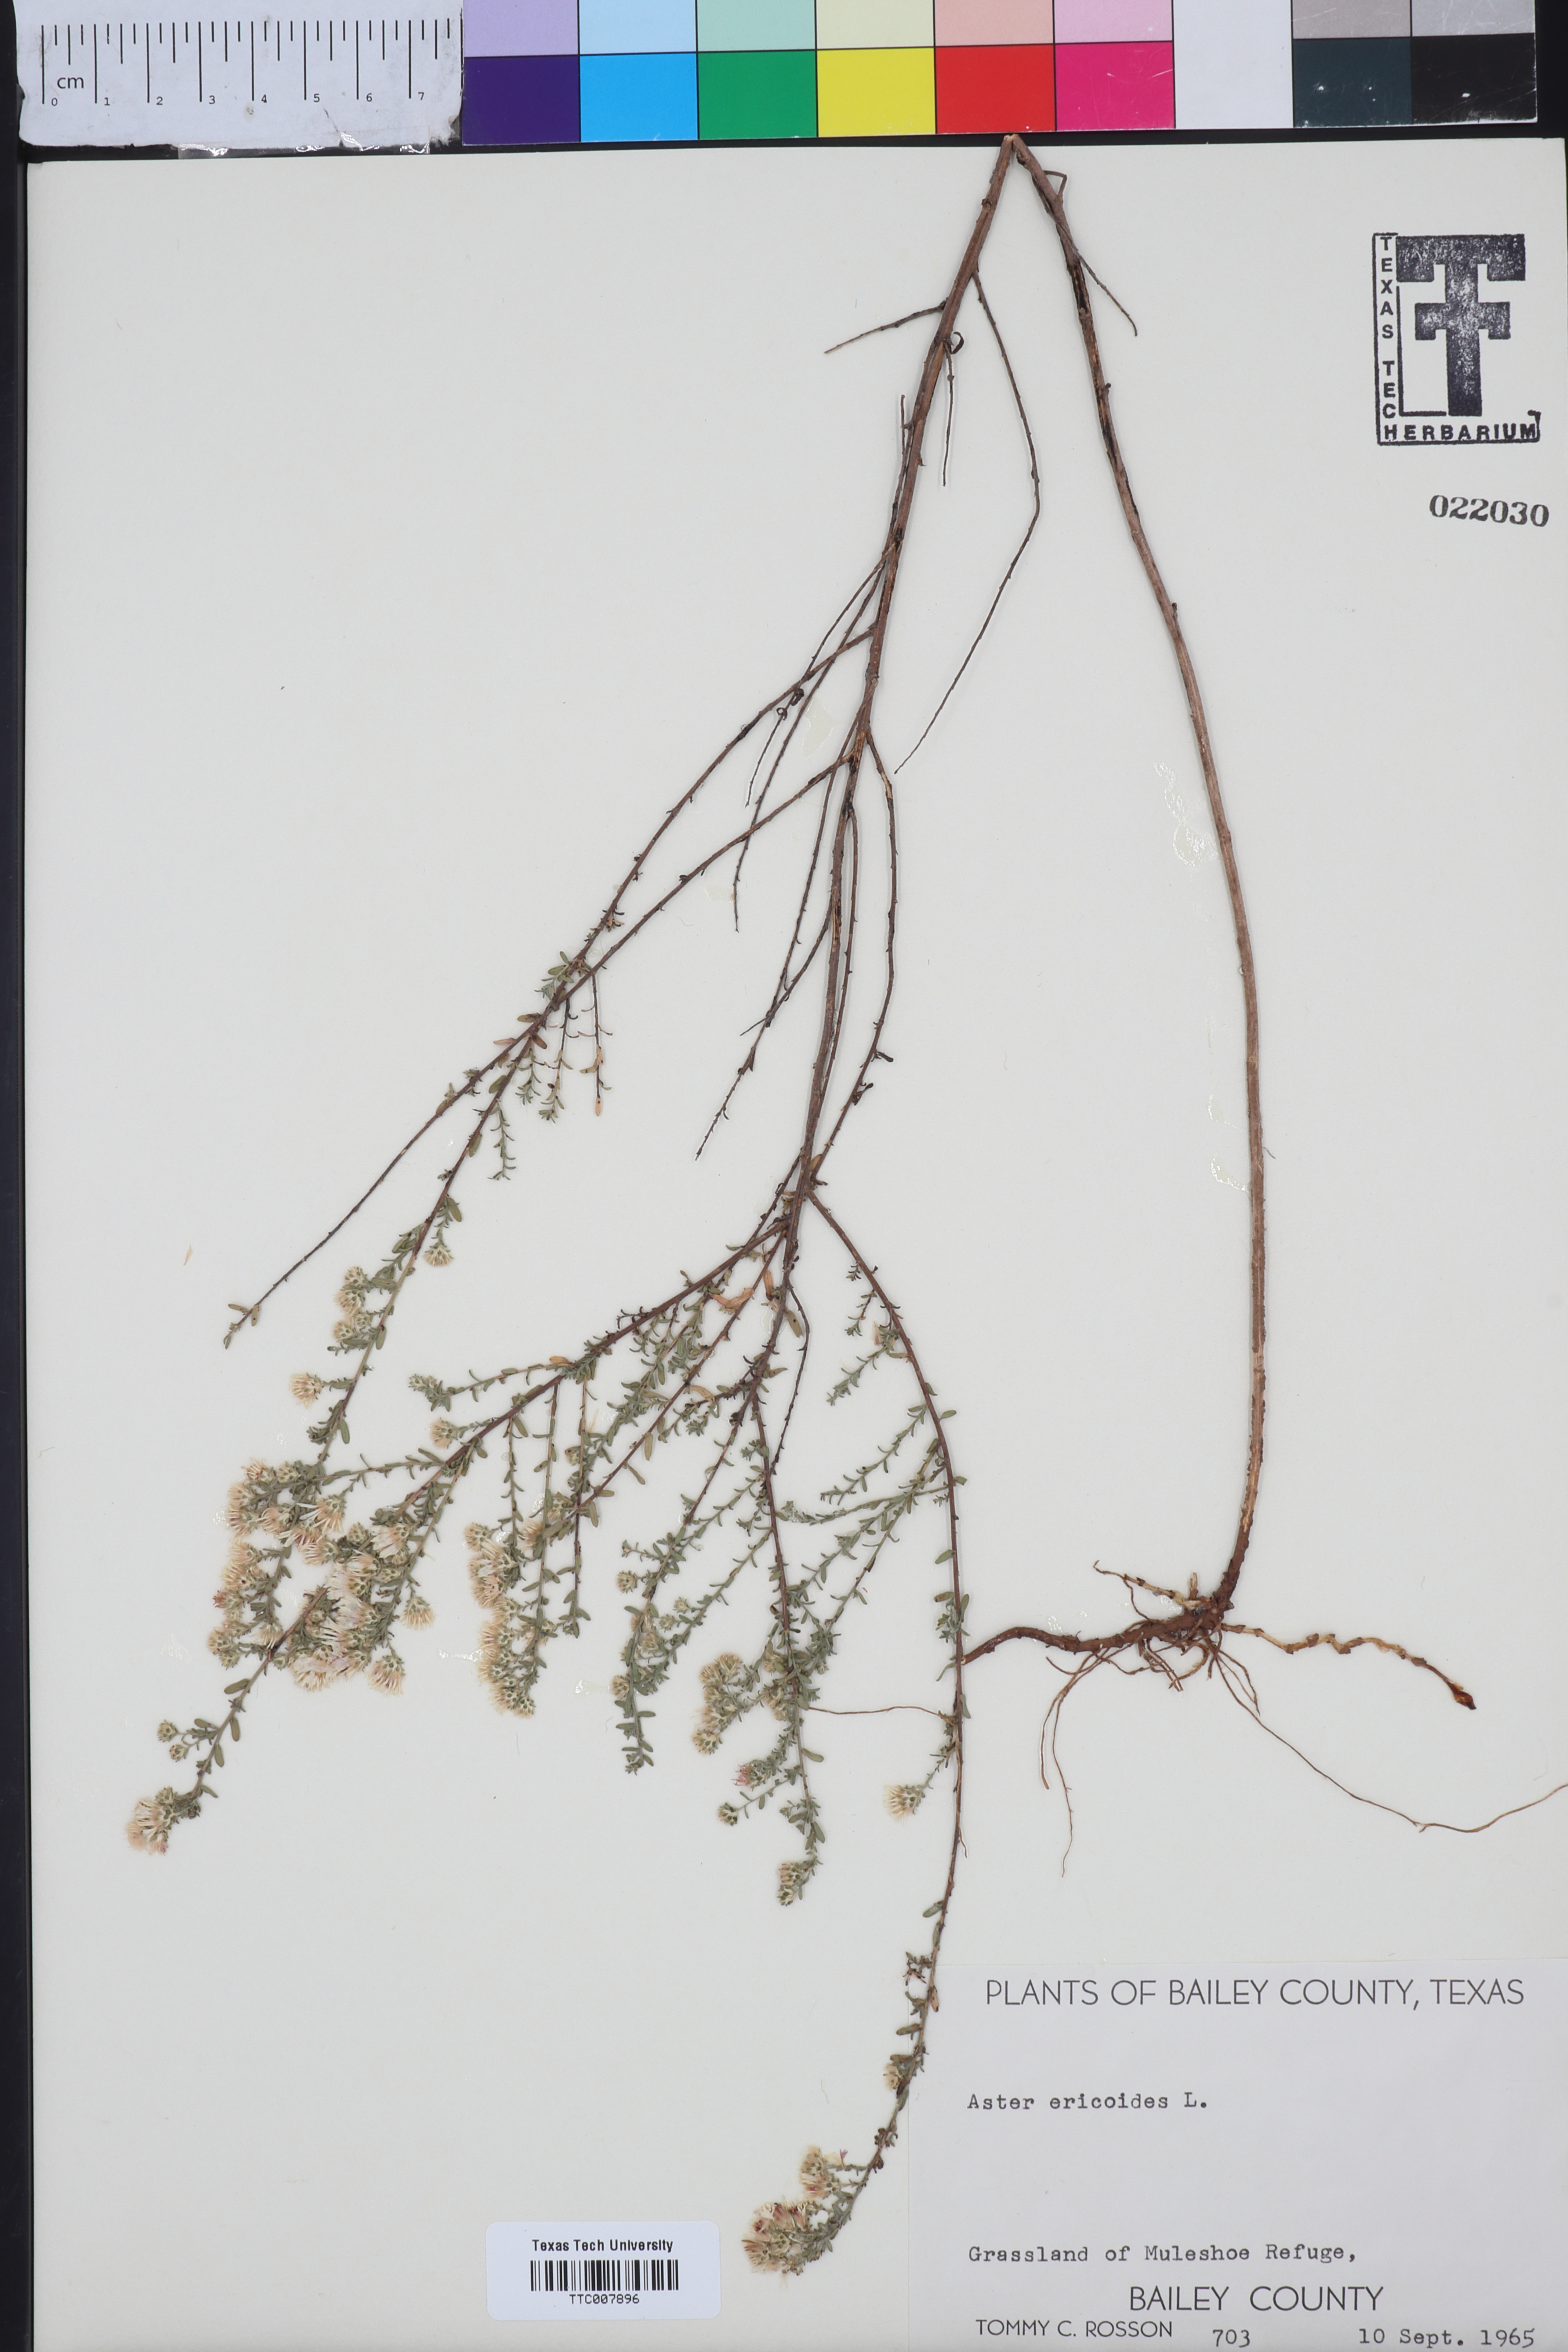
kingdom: Plantae
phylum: Tracheophyta
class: Magnoliopsida
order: Asterales
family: Asteraceae
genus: Symphyotrichum
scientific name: Symphyotrichum ericoides
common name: Heath aster
